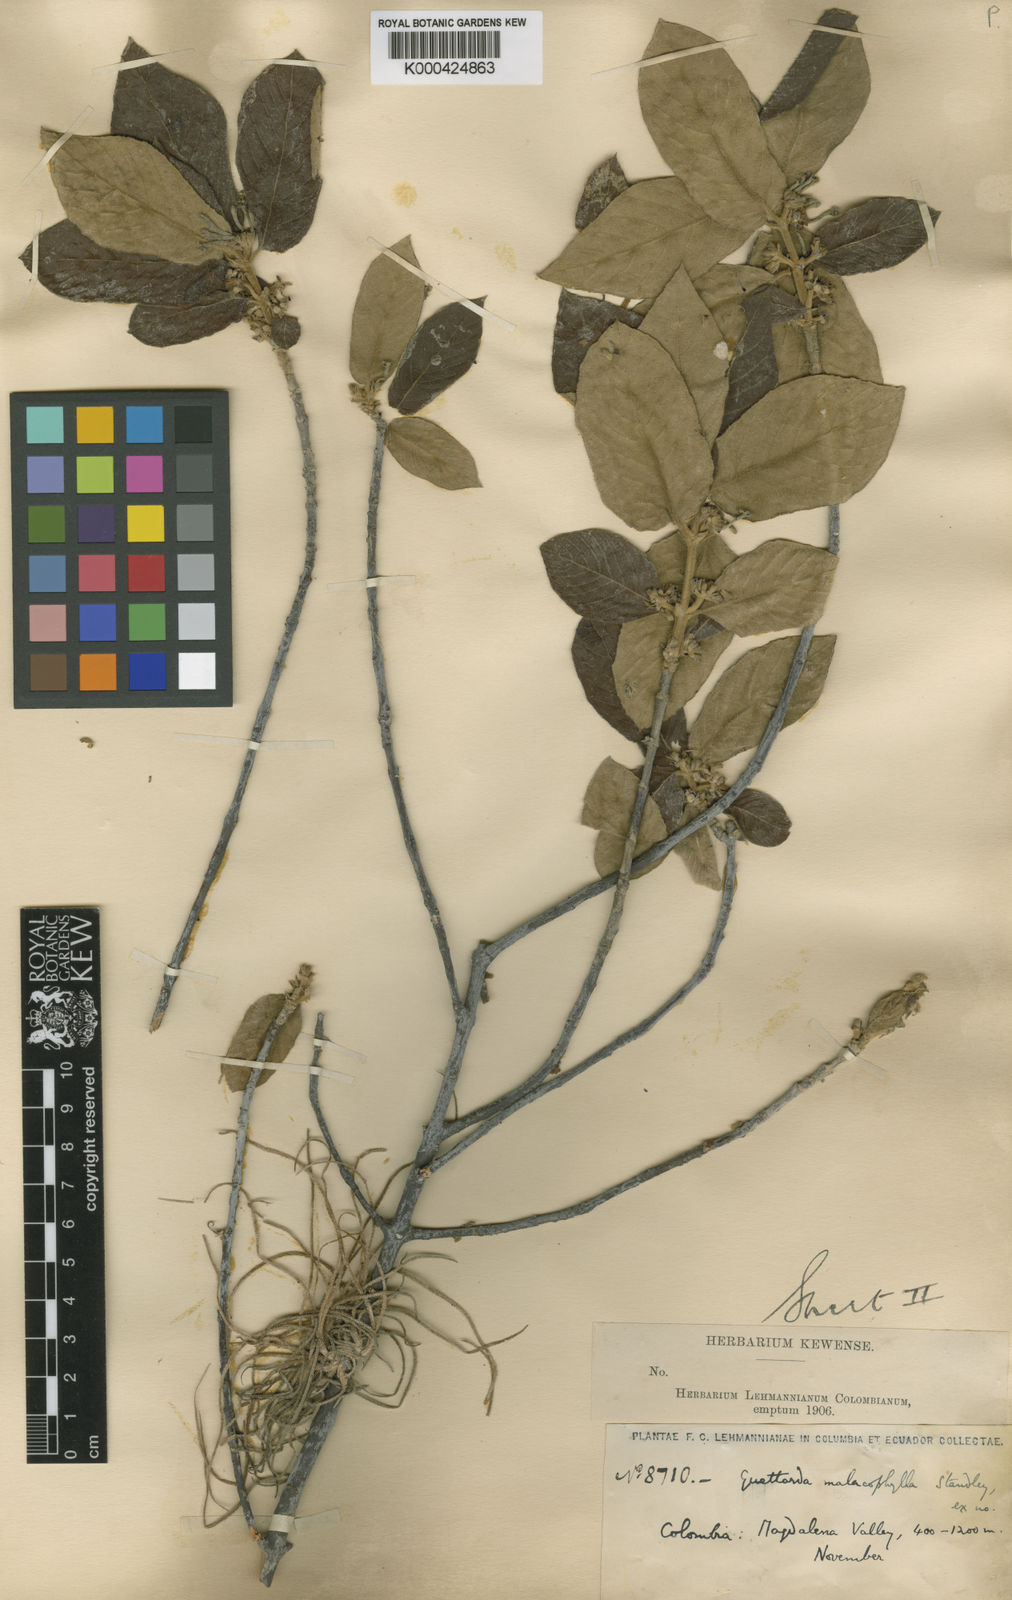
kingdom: Plantae
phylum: Tracheophyta
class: Magnoliopsida
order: Gentianales
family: Rubiaceae
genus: Guettarda
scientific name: Guettarda malacophylla
